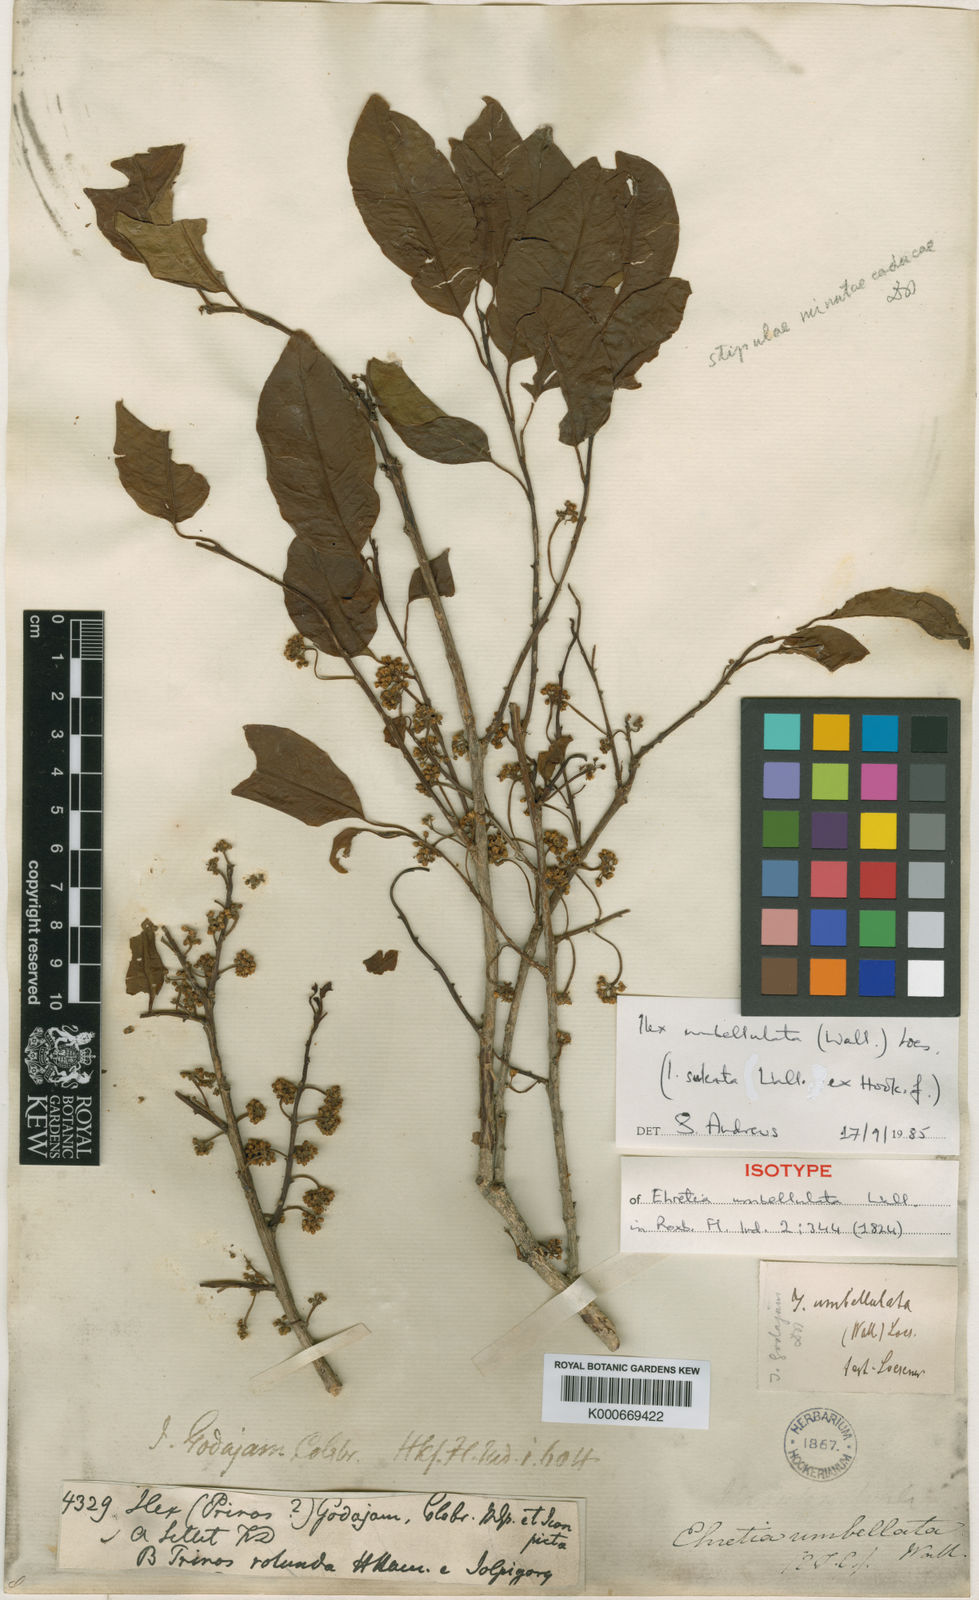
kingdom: Plantae
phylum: Tracheophyta
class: Magnoliopsida
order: Aquifoliales
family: Aquifoliaceae
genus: Ilex
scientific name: Ilex umbellulata
